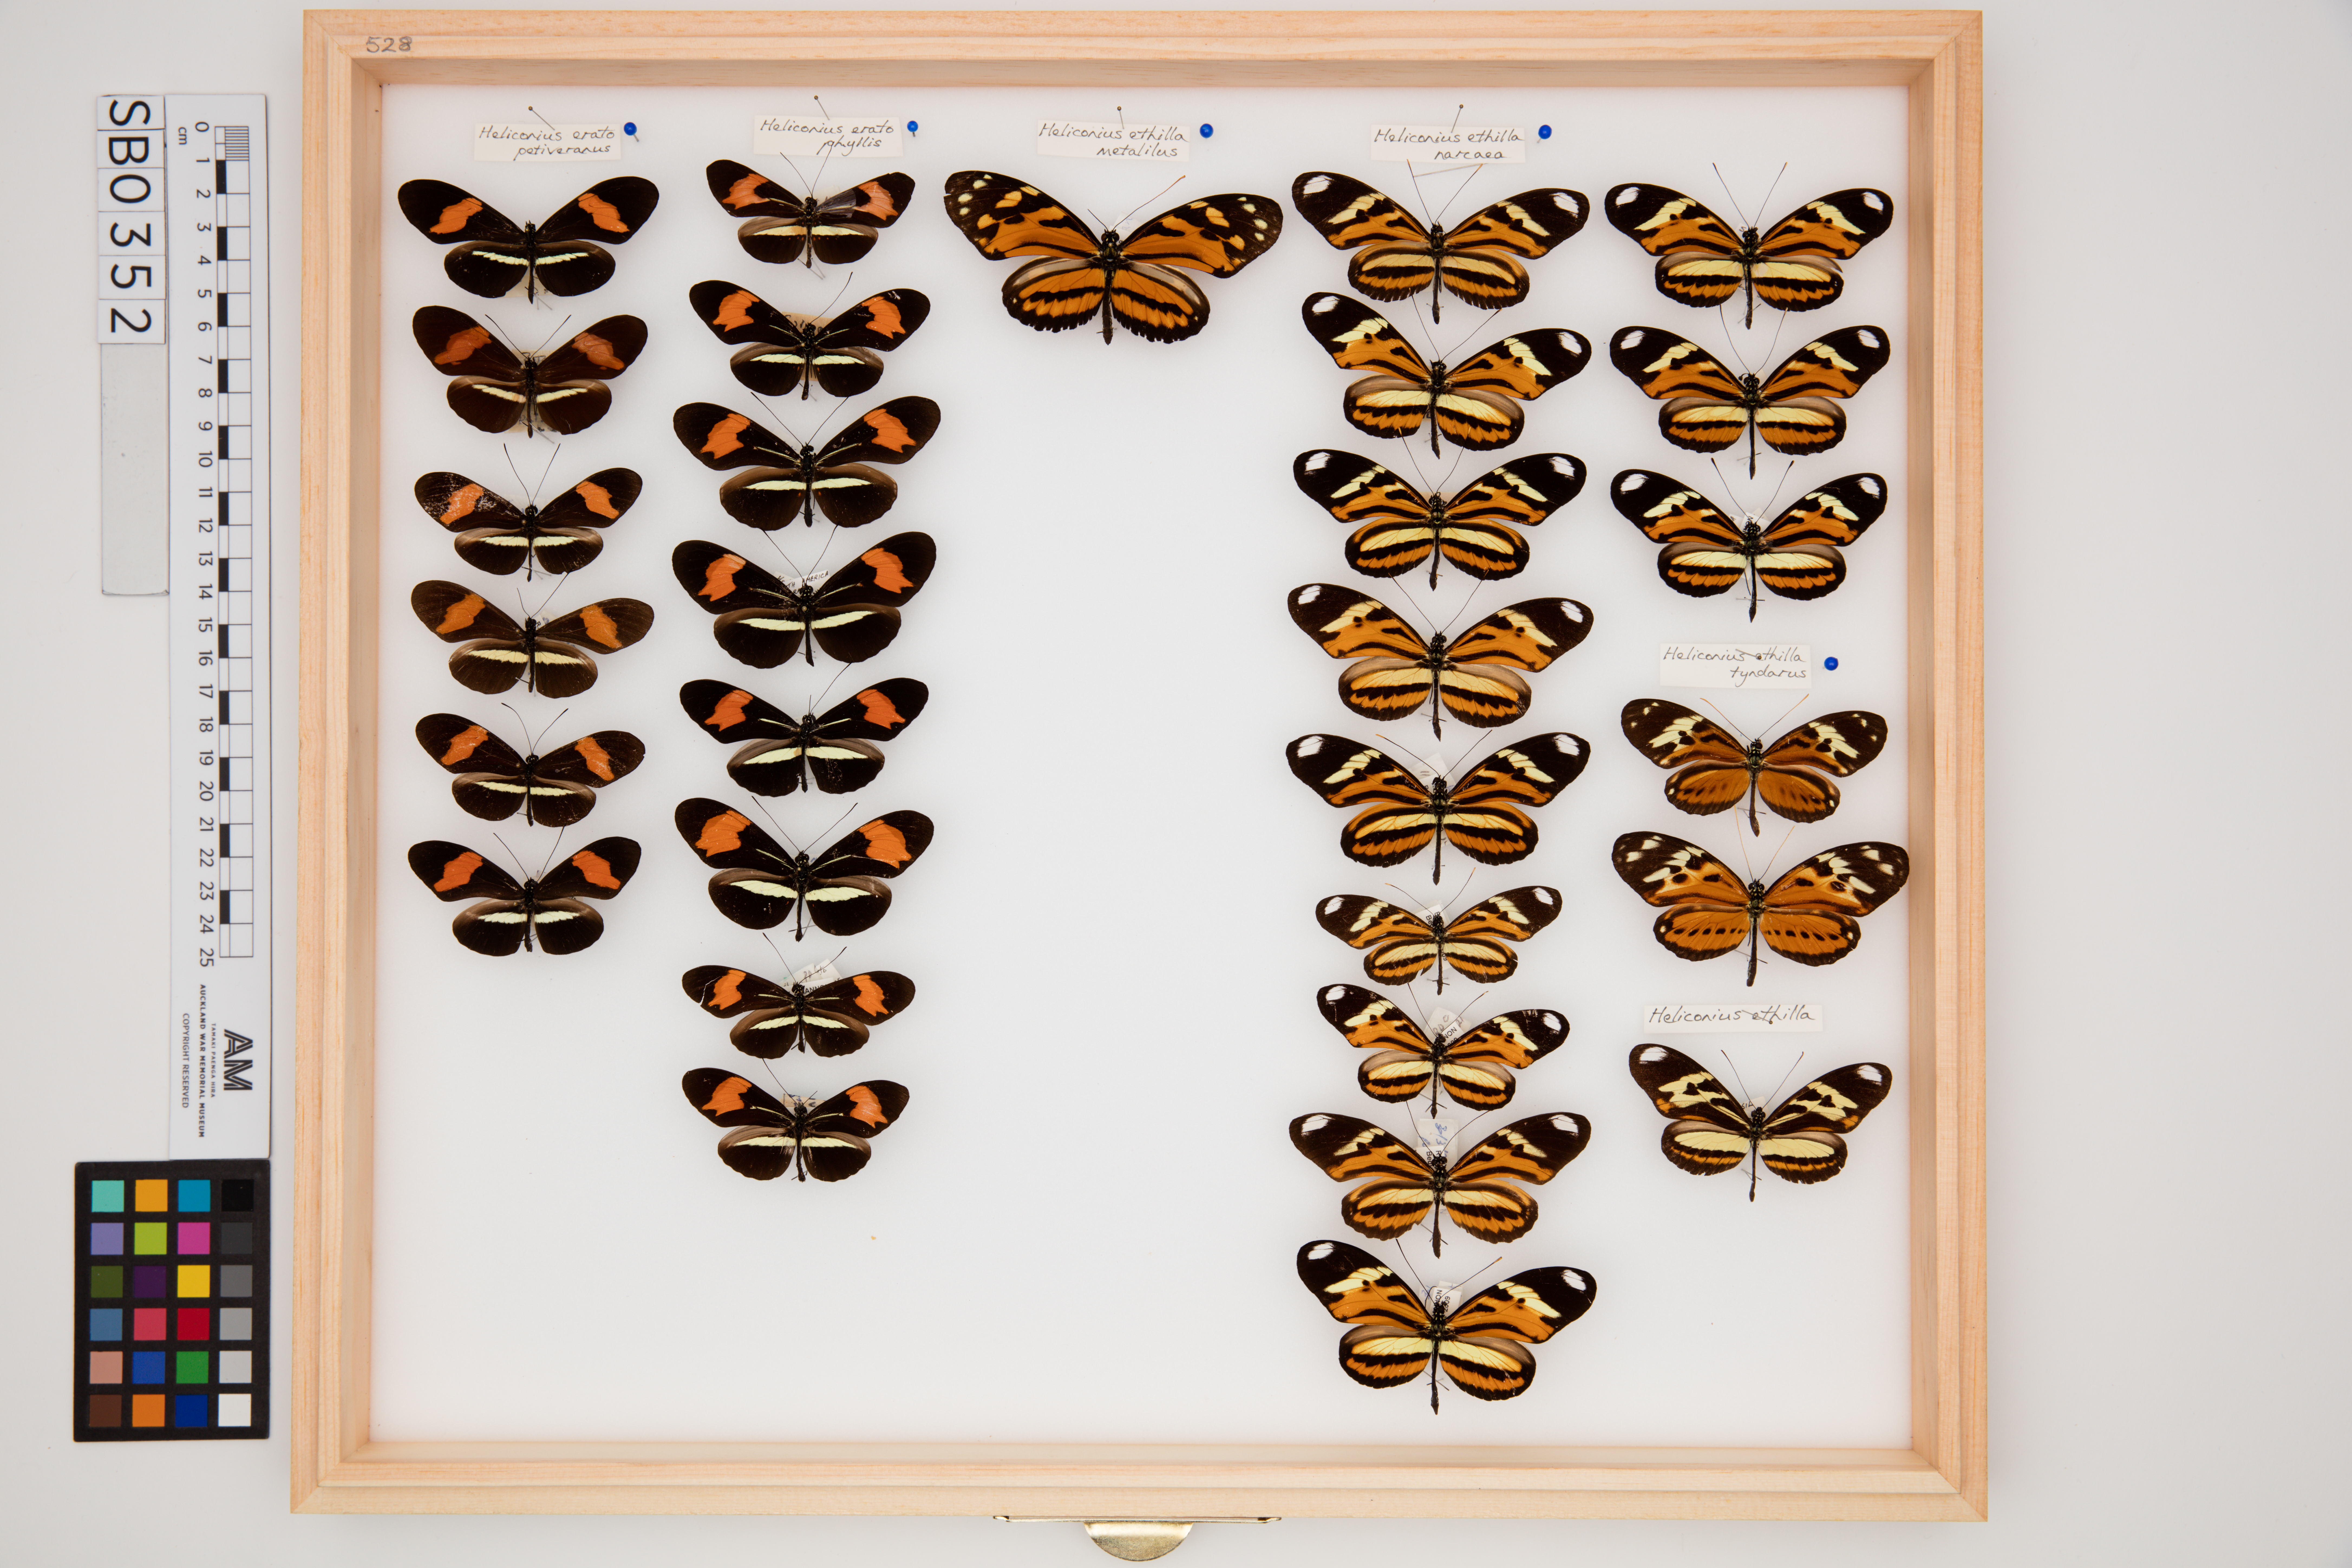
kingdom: Animalia
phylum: Arthropoda
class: Insecta
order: Lepidoptera
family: Nymphalidae
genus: Heliconius
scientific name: Heliconius erato
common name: Common patch longwing
